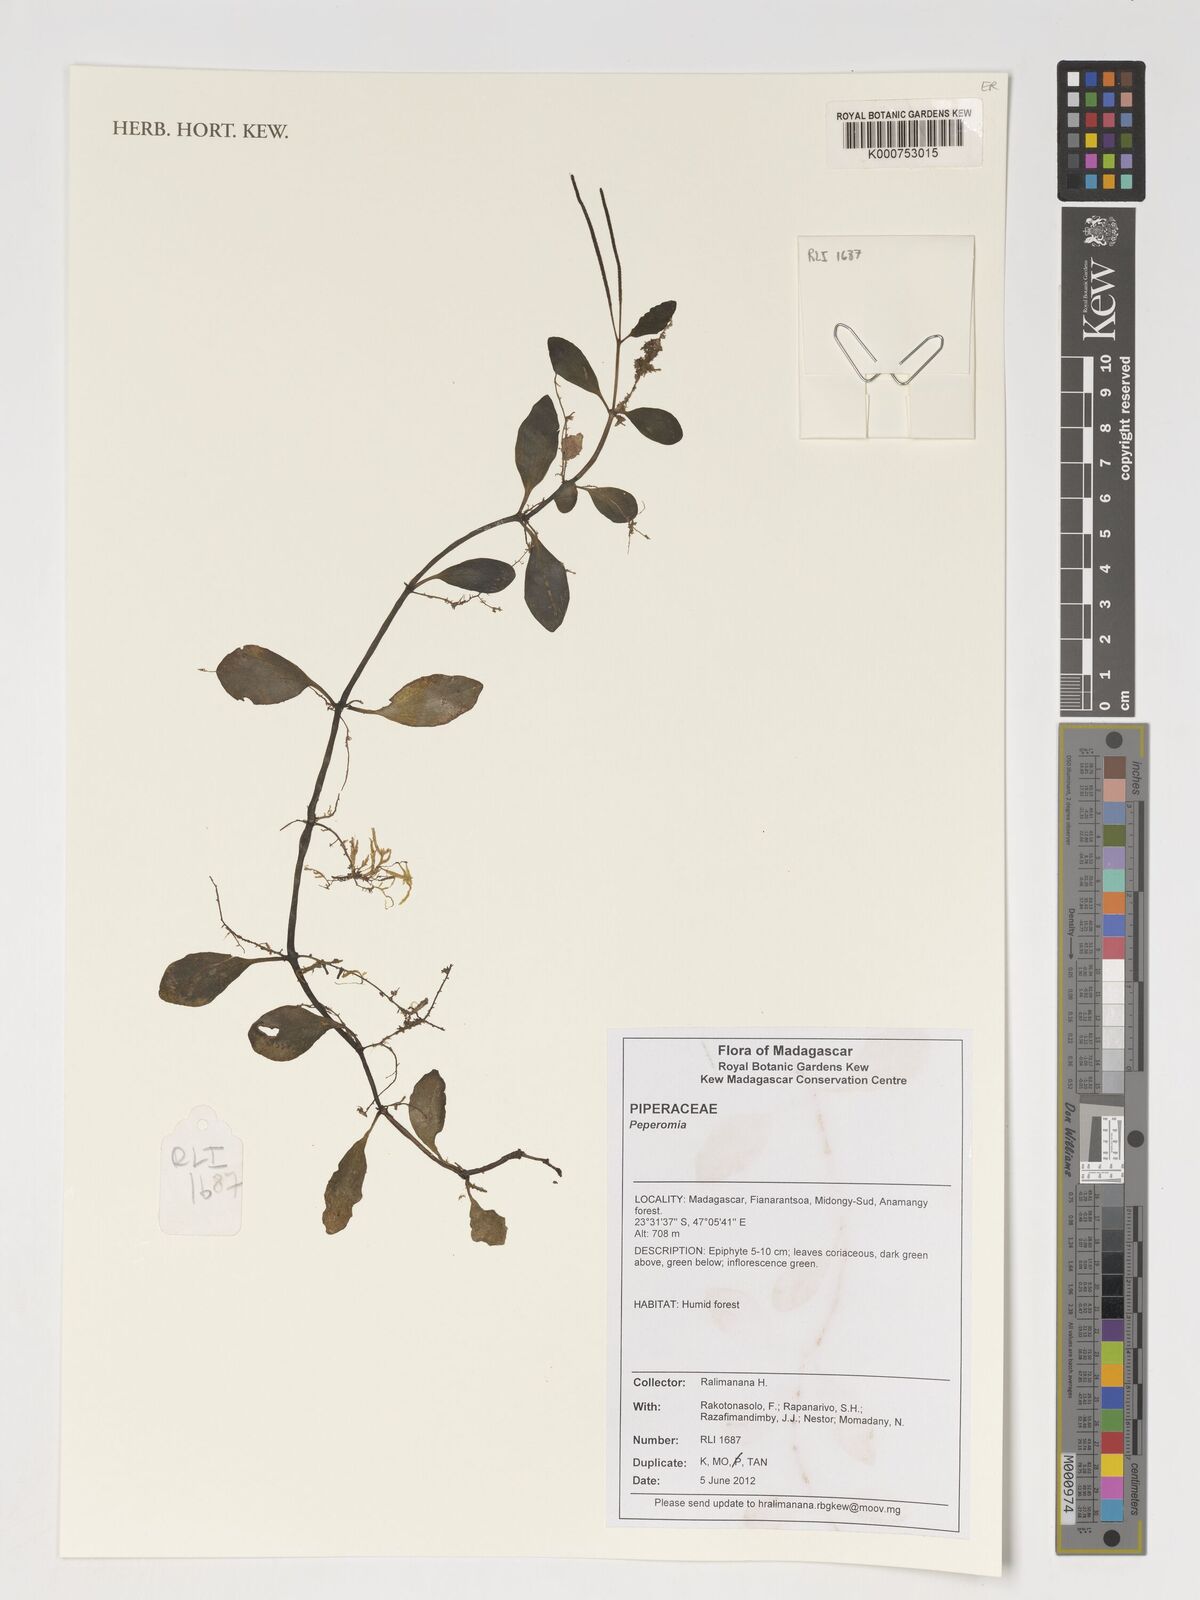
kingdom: Plantae
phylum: Tracheophyta
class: Magnoliopsida
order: Piperales
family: Piperaceae
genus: Peperomia
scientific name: Peperomia
